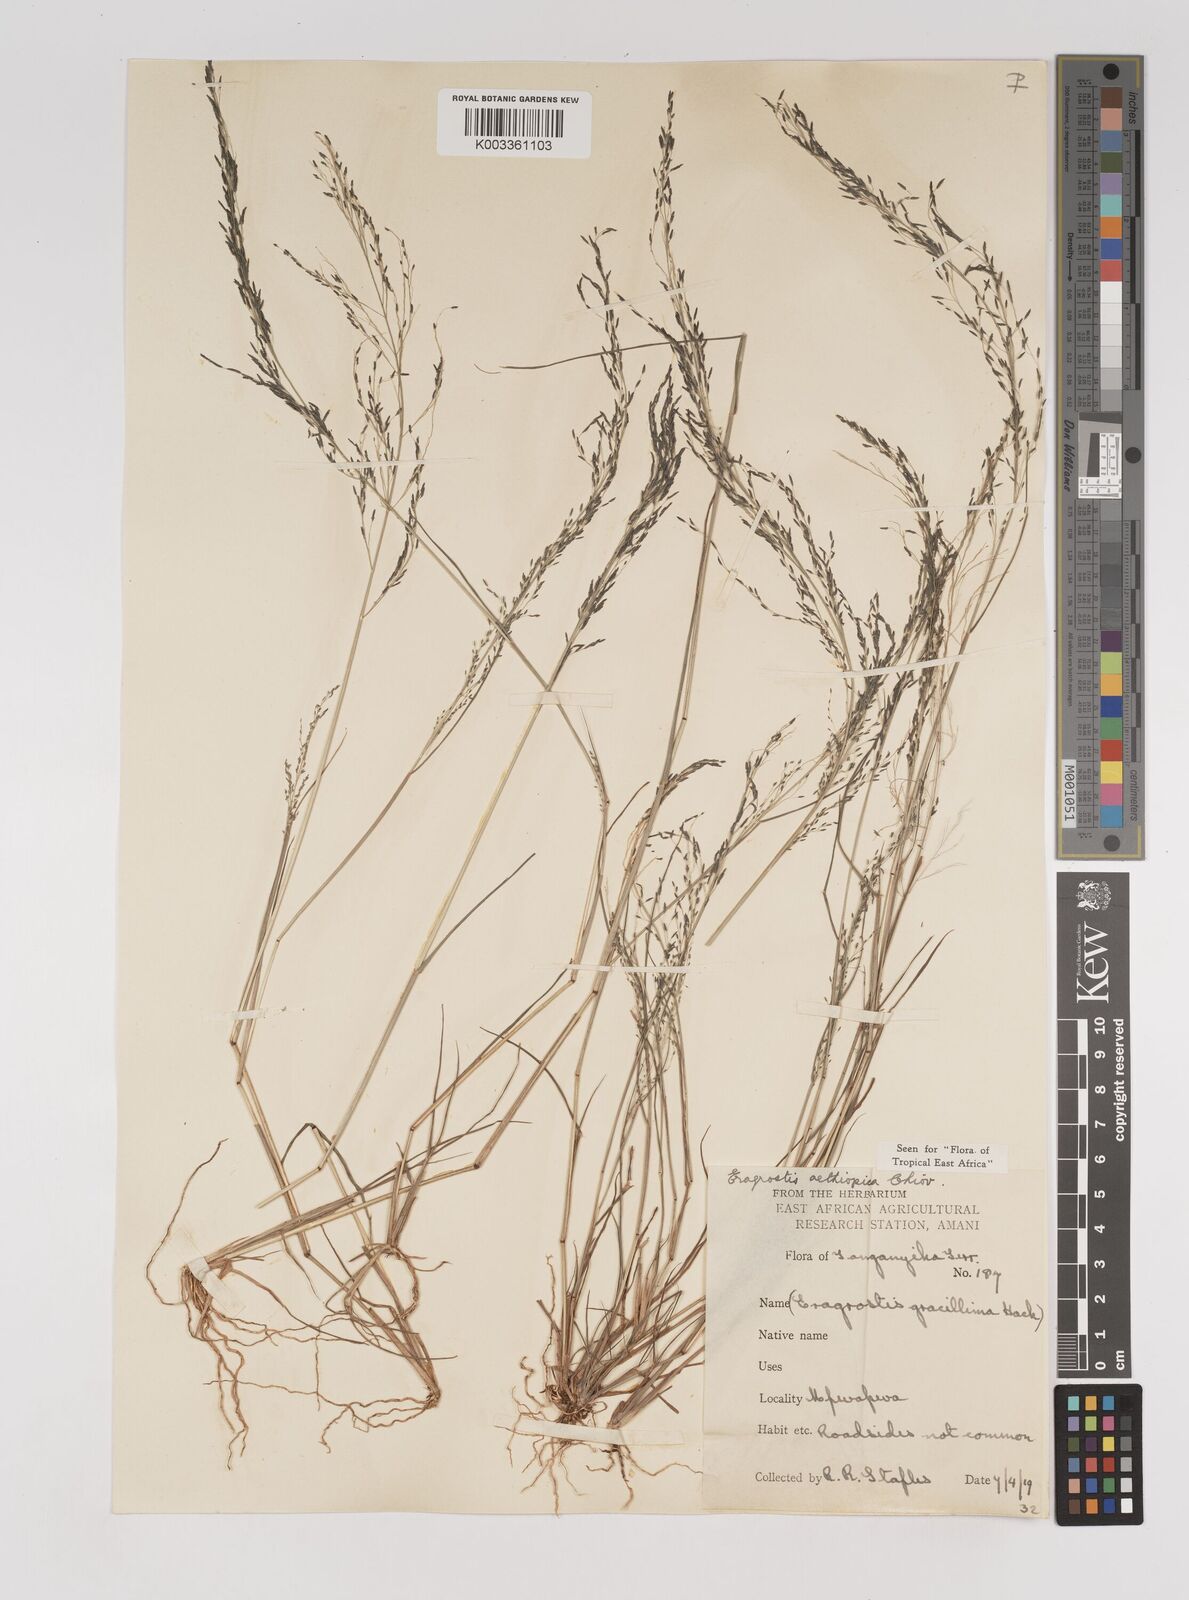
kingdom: Plantae
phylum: Tracheophyta
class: Liliopsida
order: Poales
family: Poaceae
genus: Eragrostis
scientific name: Eragrostis aethiopica
